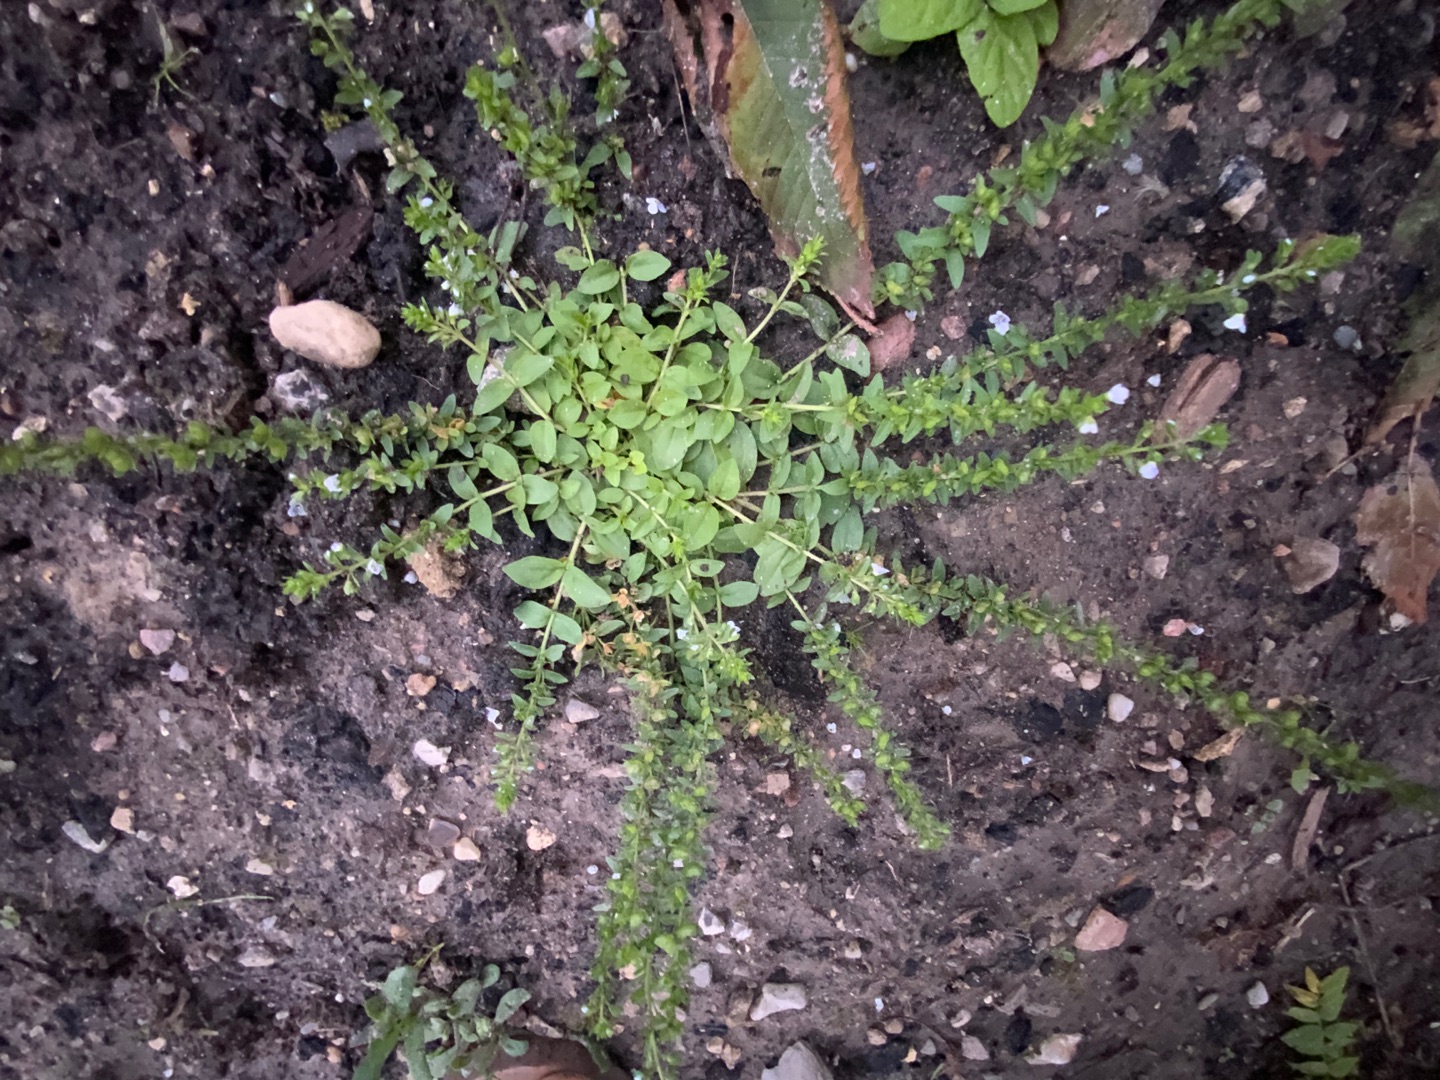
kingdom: Plantae
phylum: Tracheophyta
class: Magnoliopsida
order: Lamiales
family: Plantaginaceae
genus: Veronica
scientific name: Veronica serpyllifolia
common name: Glat ærenpris
